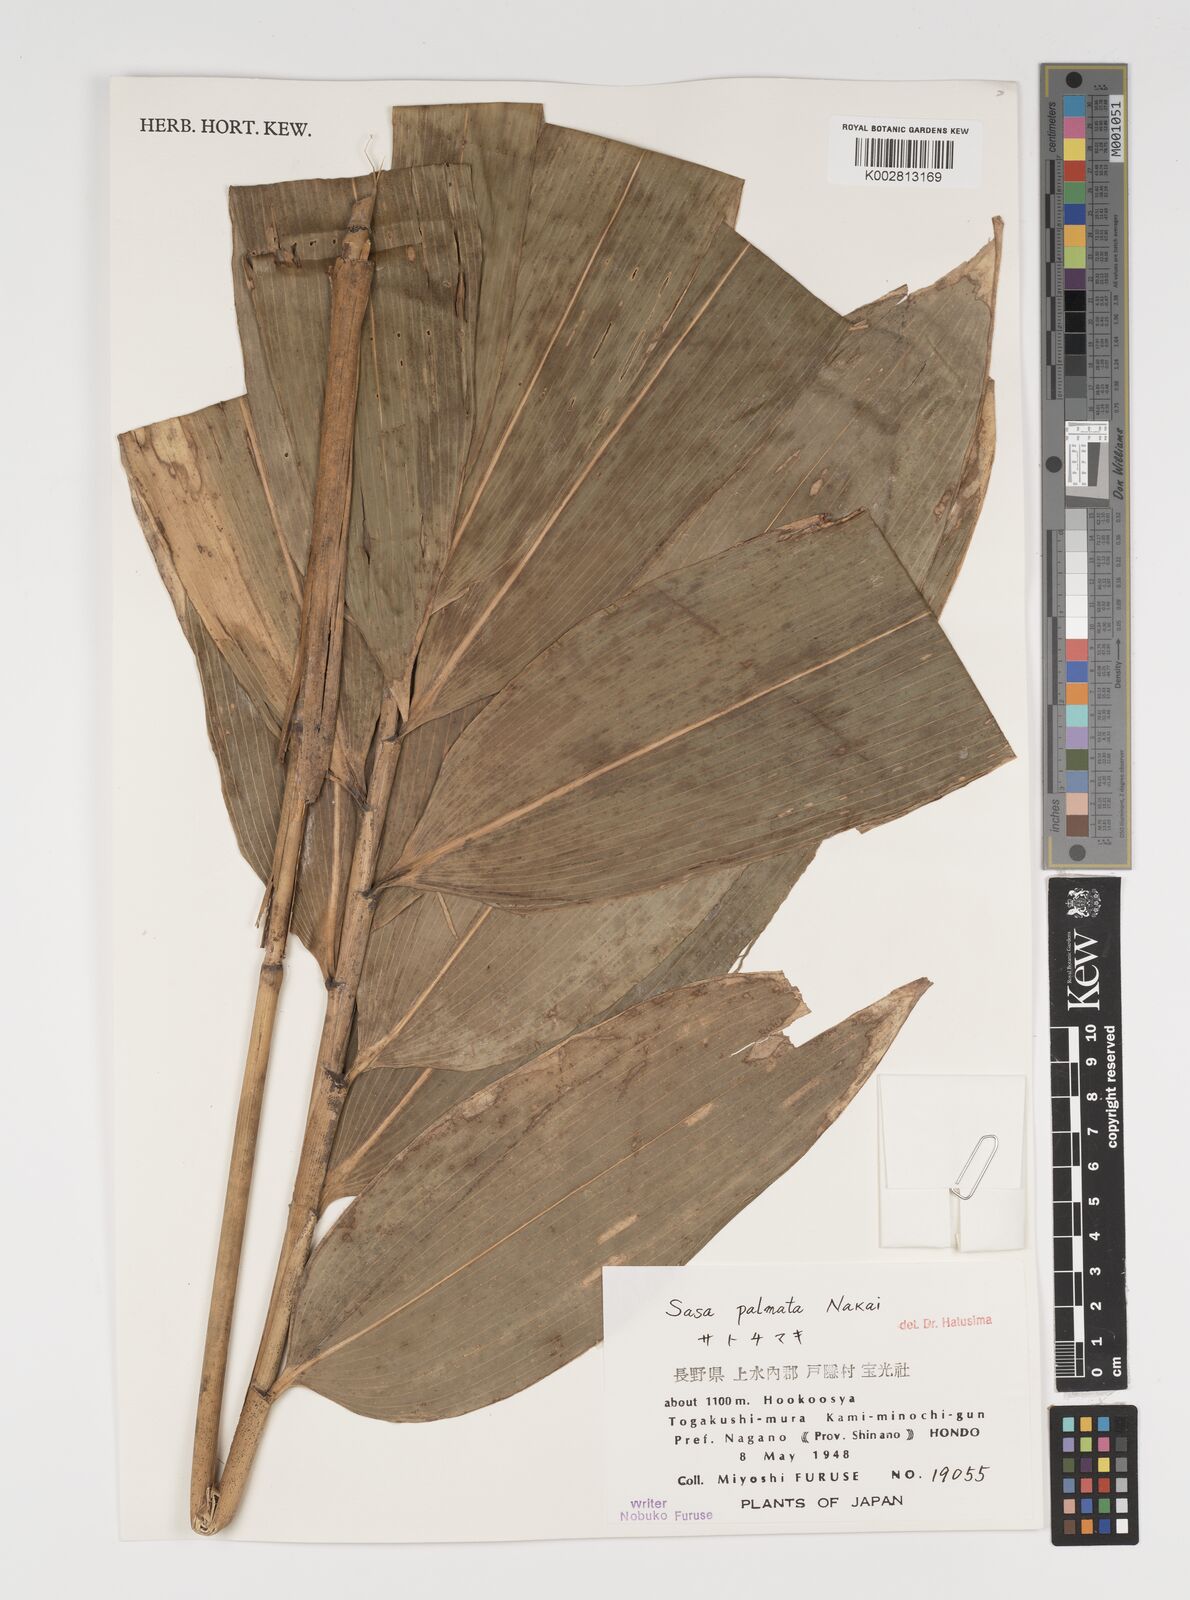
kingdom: Plantae
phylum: Tracheophyta
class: Liliopsida
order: Poales
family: Poaceae
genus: Sasa
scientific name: Sasa palmata
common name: Broad-leaved bamboo
